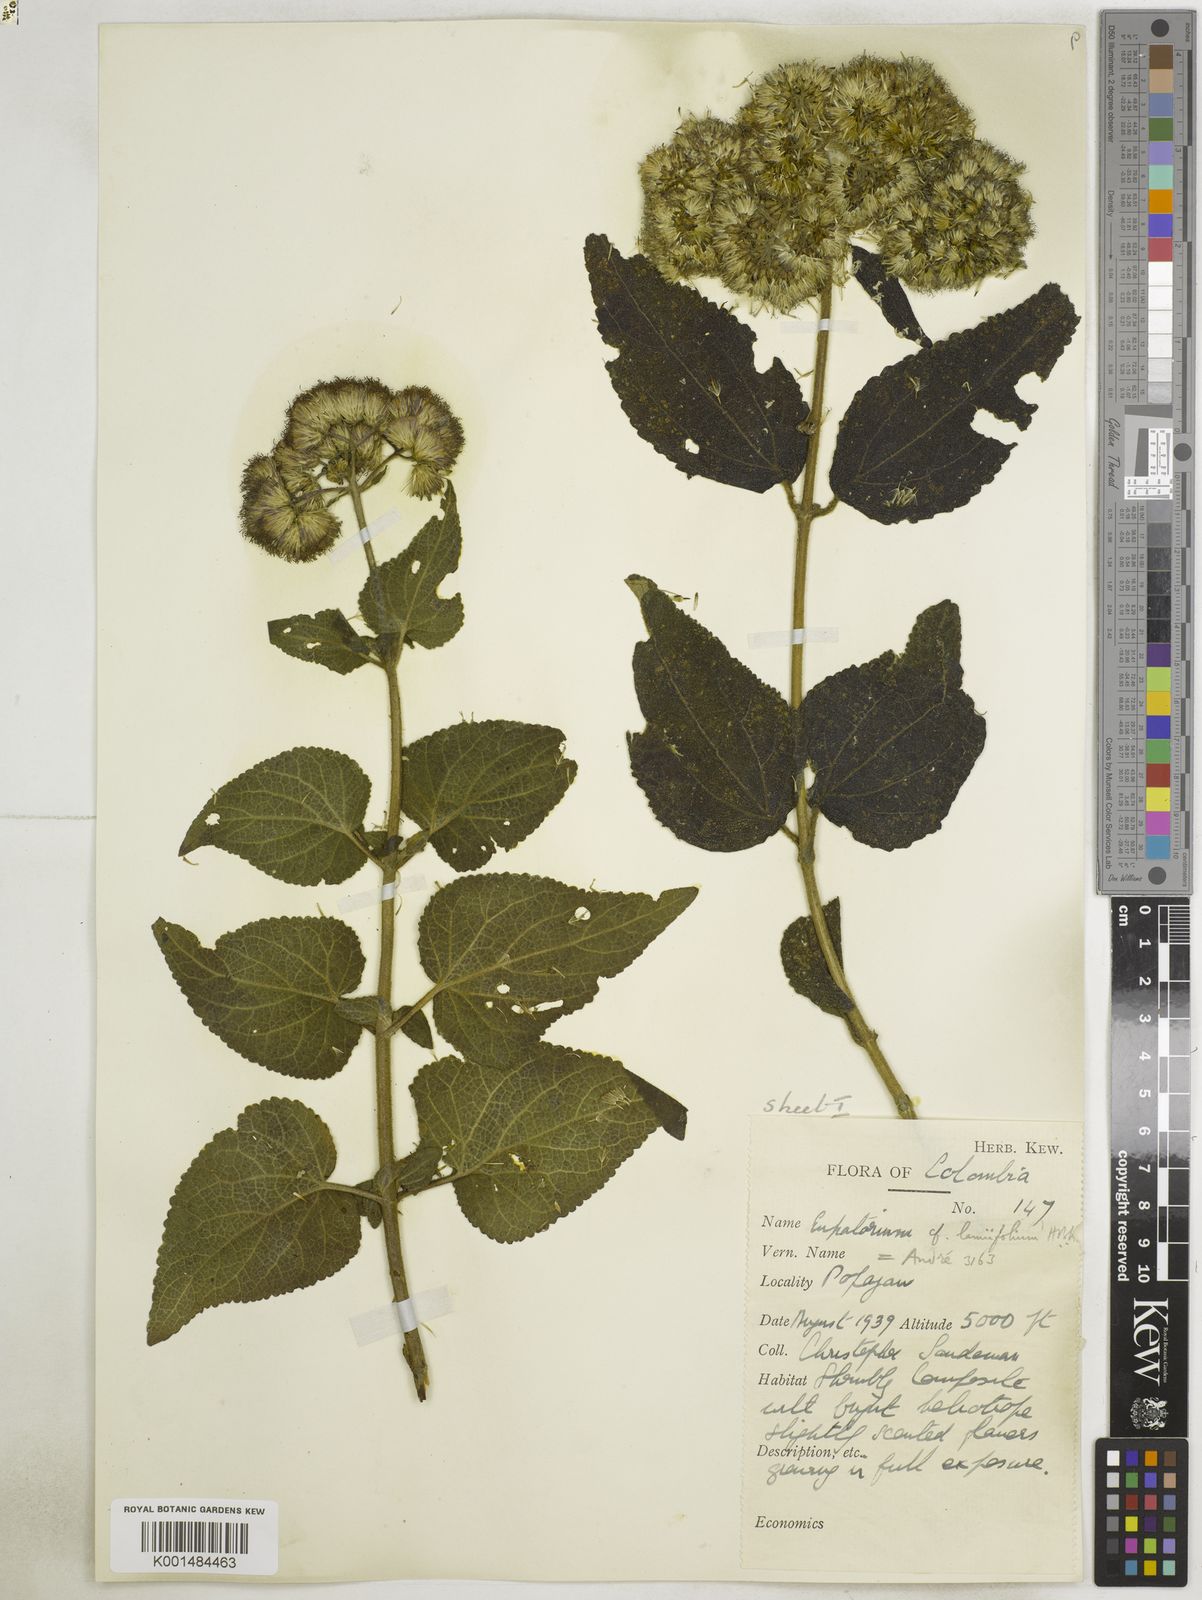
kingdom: Plantae
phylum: Tracheophyta
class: Magnoliopsida
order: Asterales
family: Asteraceae
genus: Aristeguietia
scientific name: Aristeguietia lamiifolia
